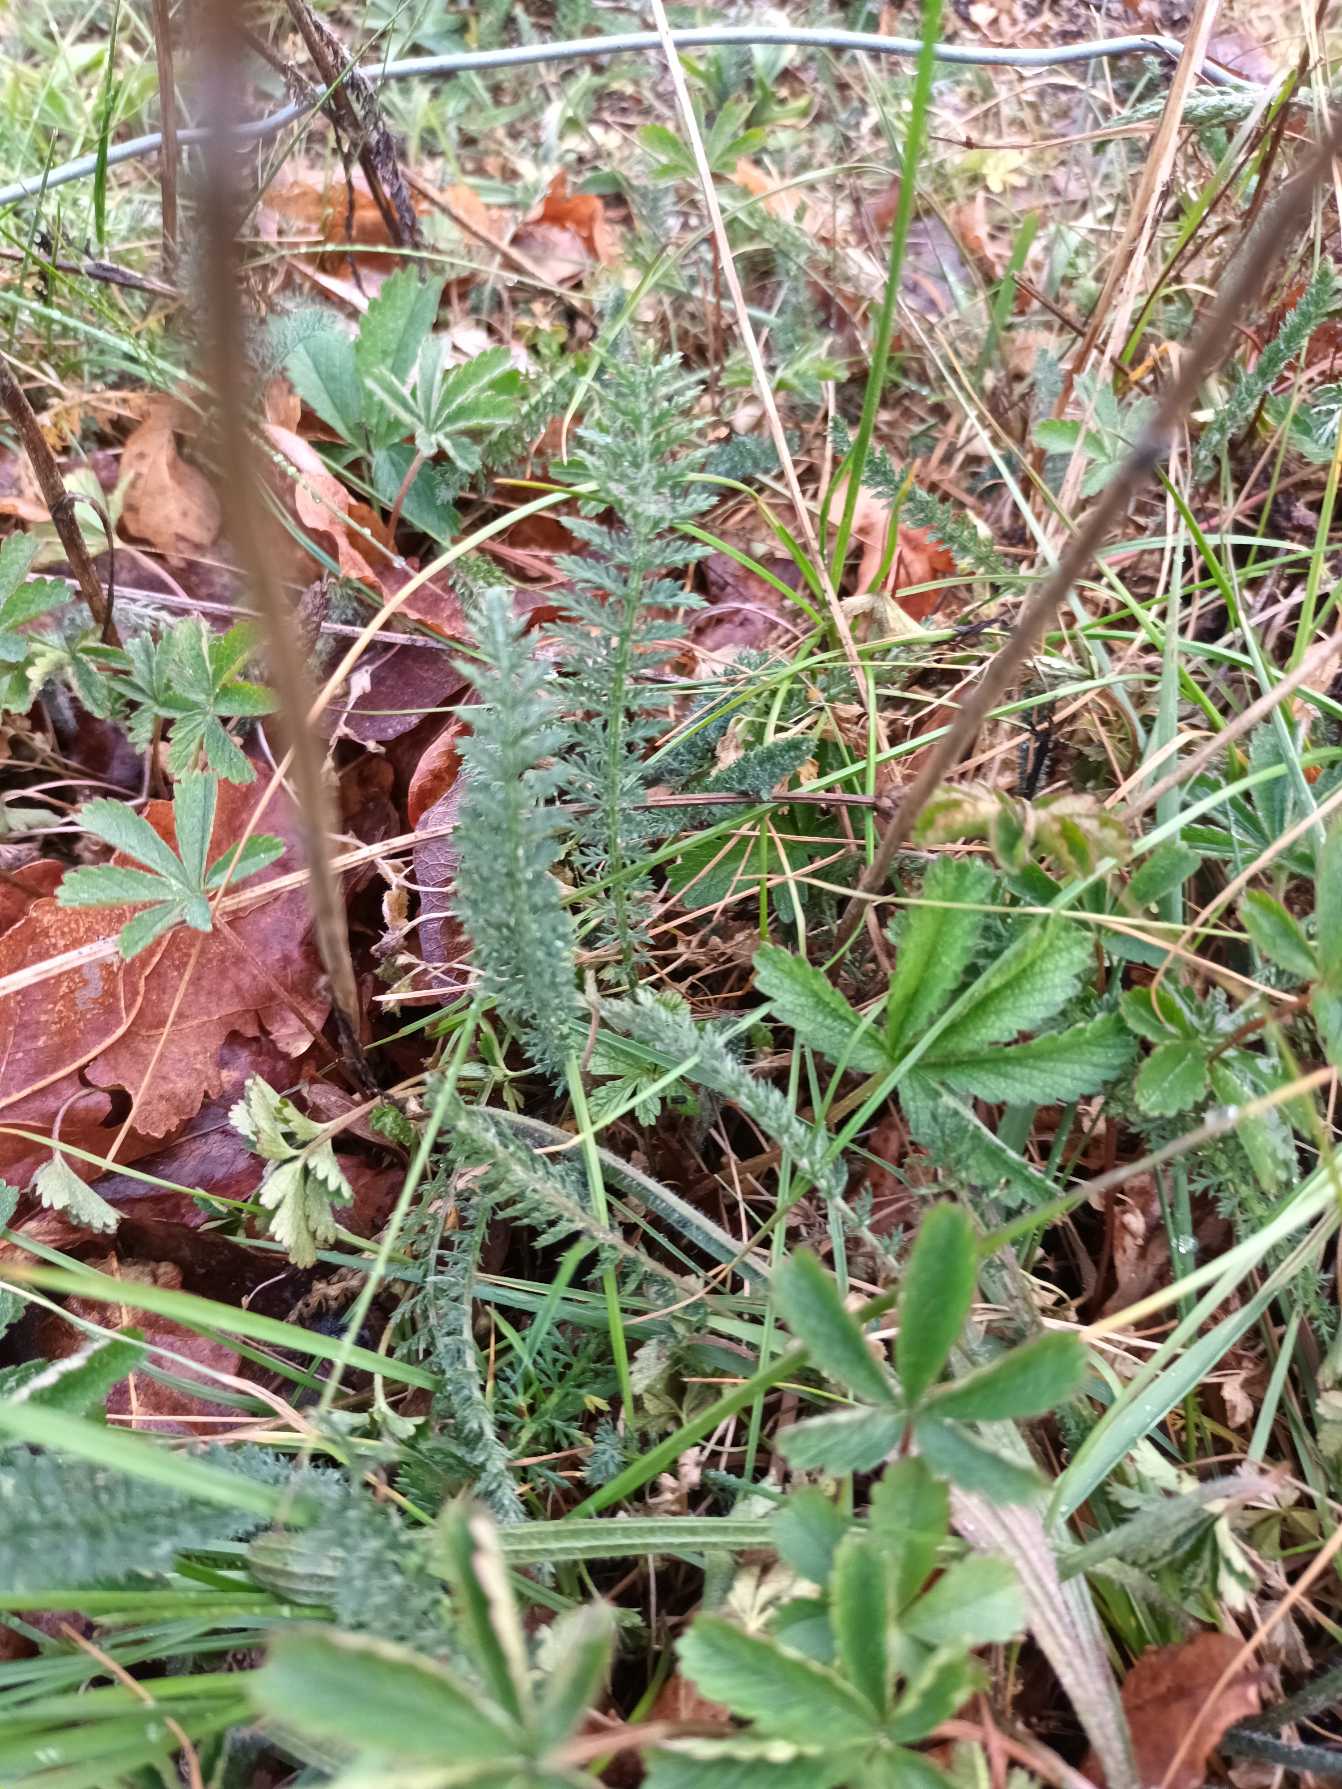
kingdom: Plantae
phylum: Tracheophyta
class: Magnoliopsida
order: Asterales
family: Asteraceae
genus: Achillea
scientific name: Achillea millefolium
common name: Almindelig røllike
